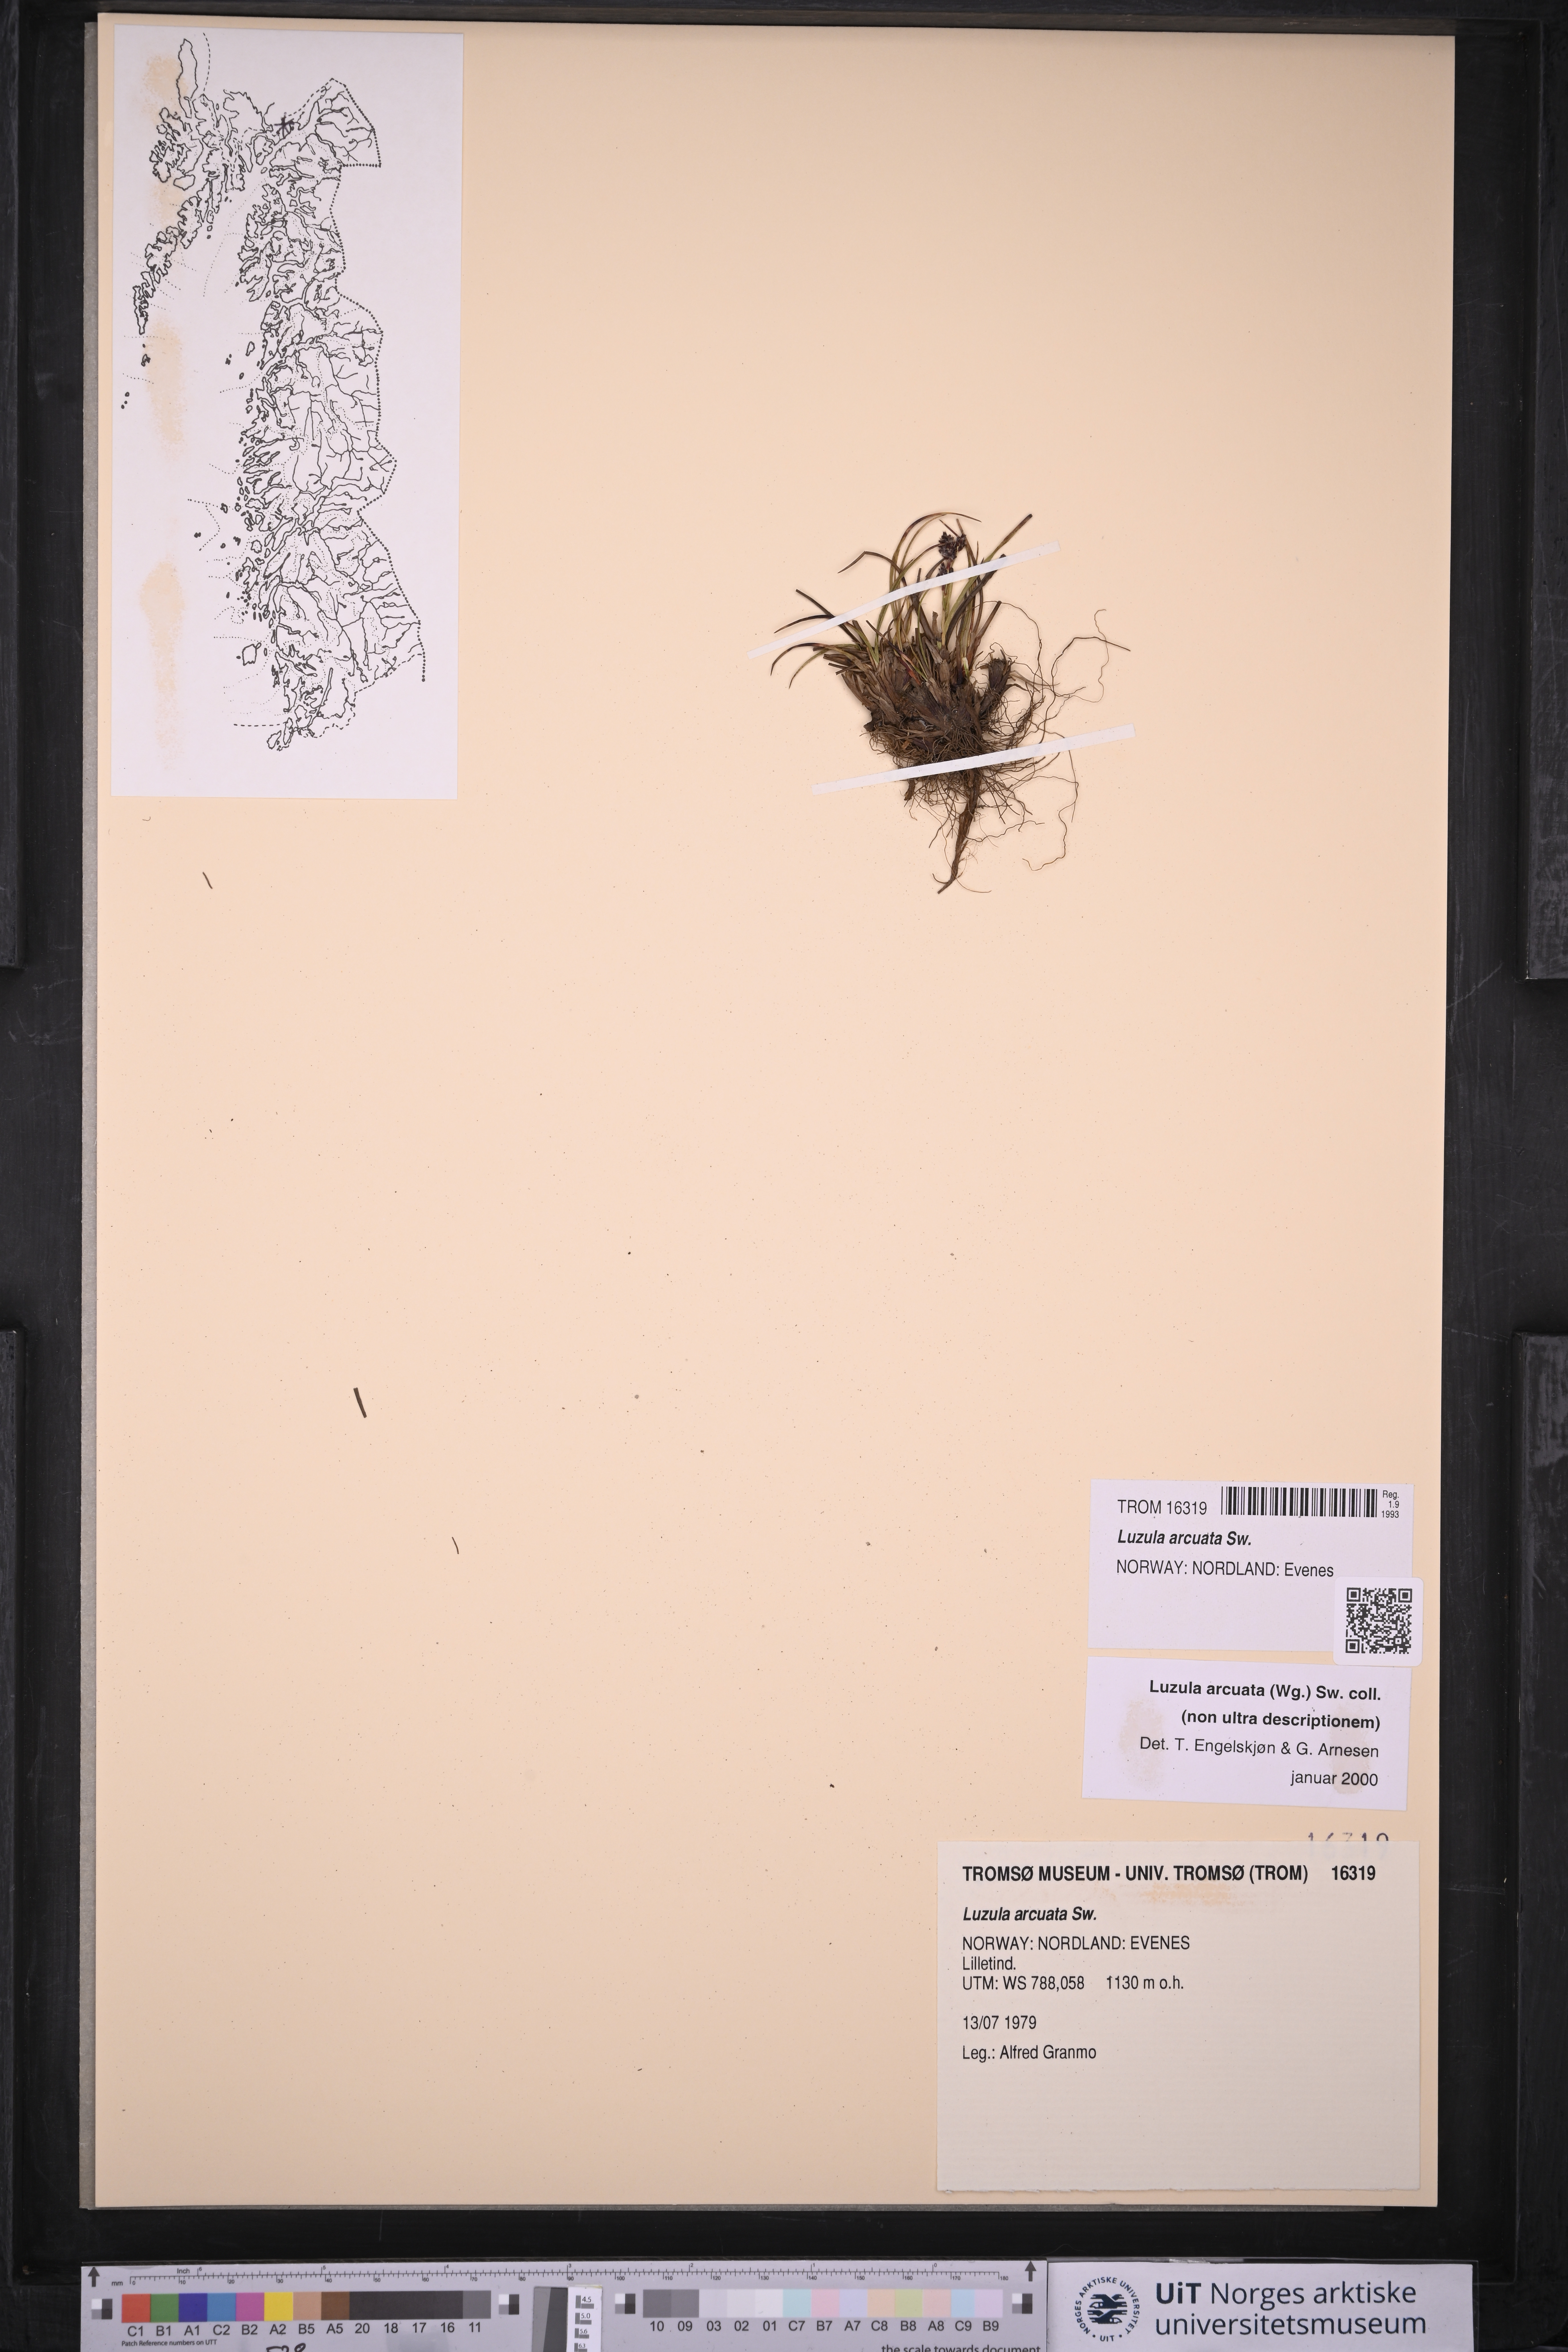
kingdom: Plantae
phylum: Tracheophyta
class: Liliopsida
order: Poales
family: Juncaceae
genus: Luzula
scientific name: Luzula arcuata
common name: Curved wood-rush
